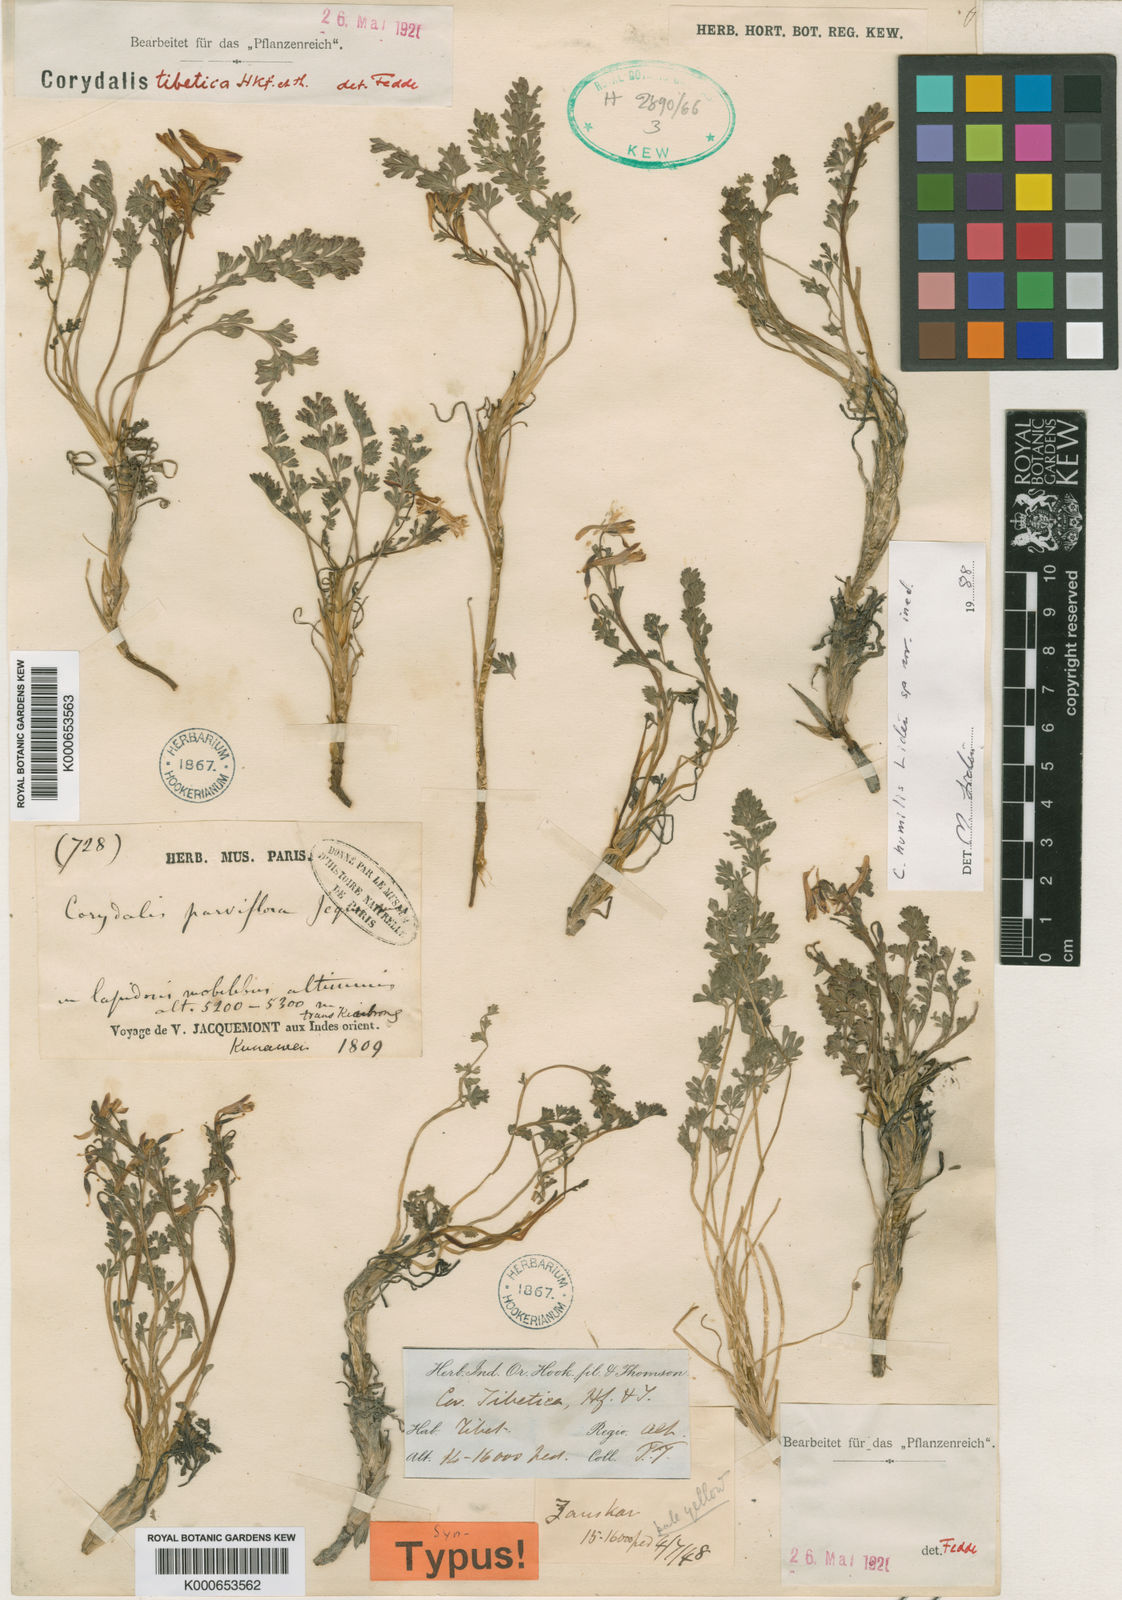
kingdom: Plantae
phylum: Tracheophyta
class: Magnoliopsida
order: Ranunculales
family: Papaveraceae
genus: Corydalis
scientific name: Corydalis tibetoalpina
